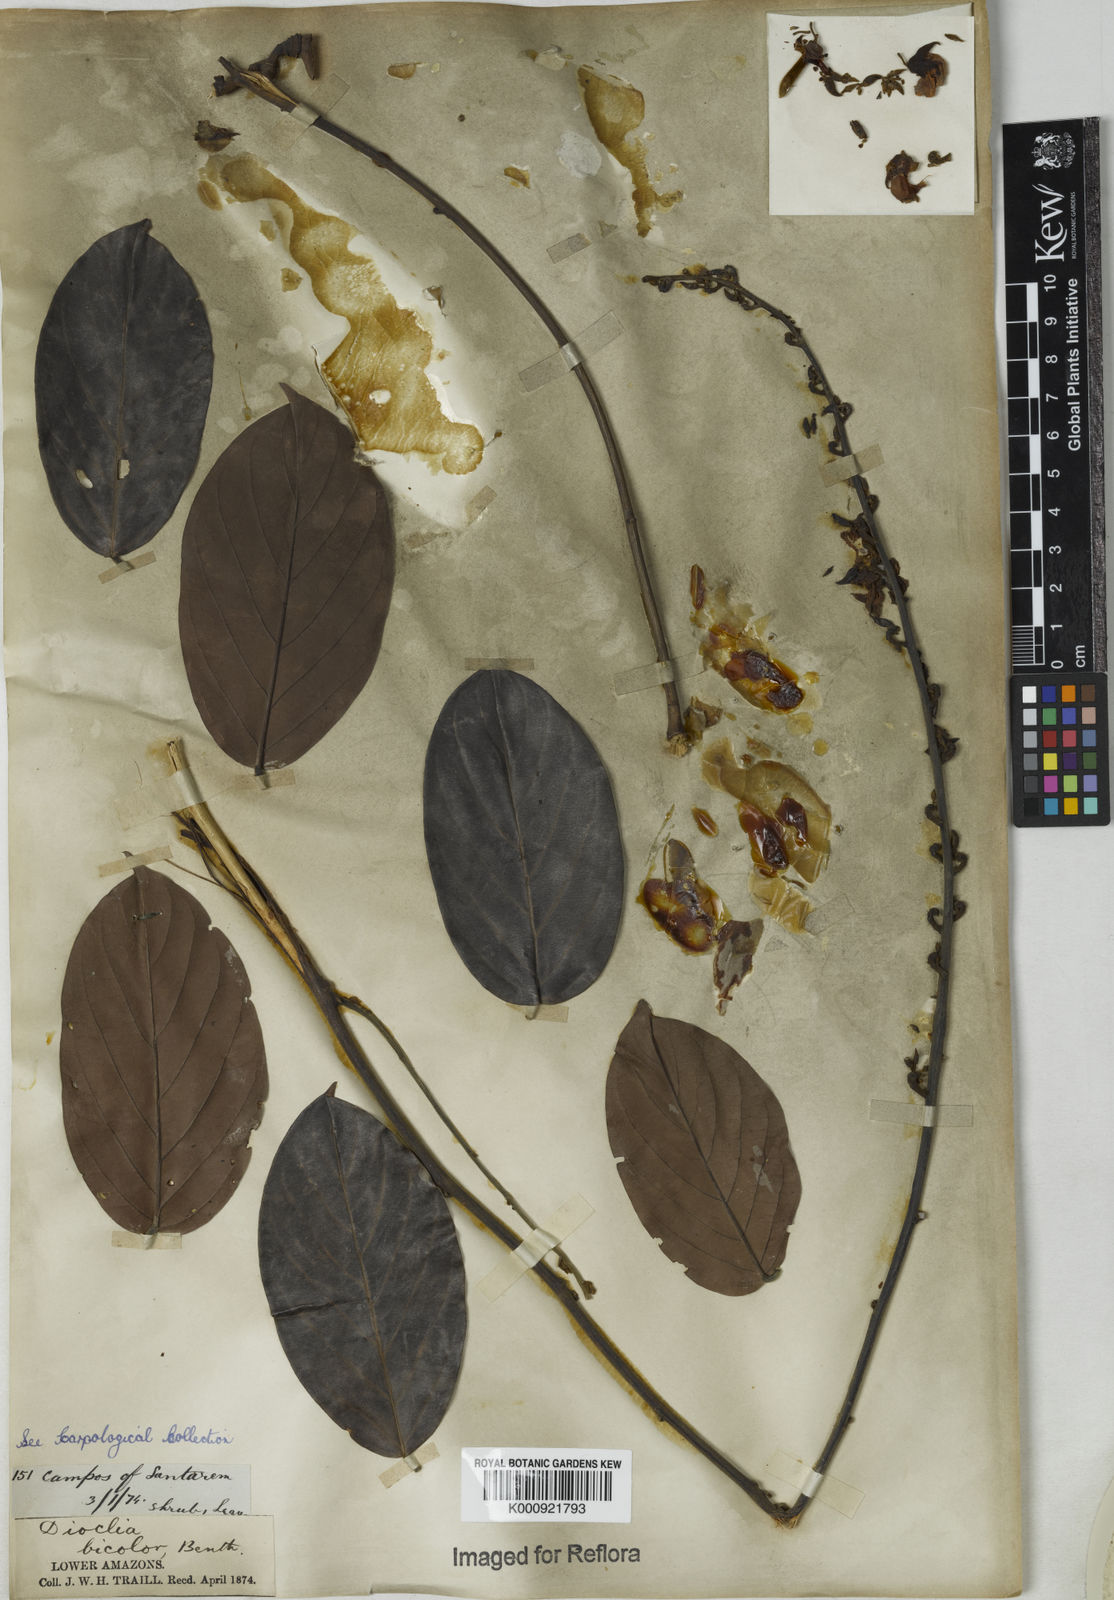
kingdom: Plantae
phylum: Tracheophyta
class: Magnoliopsida
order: Fabales
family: Fabaceae
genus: Macropsychanthus
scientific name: Macropsychanthus bicolor
